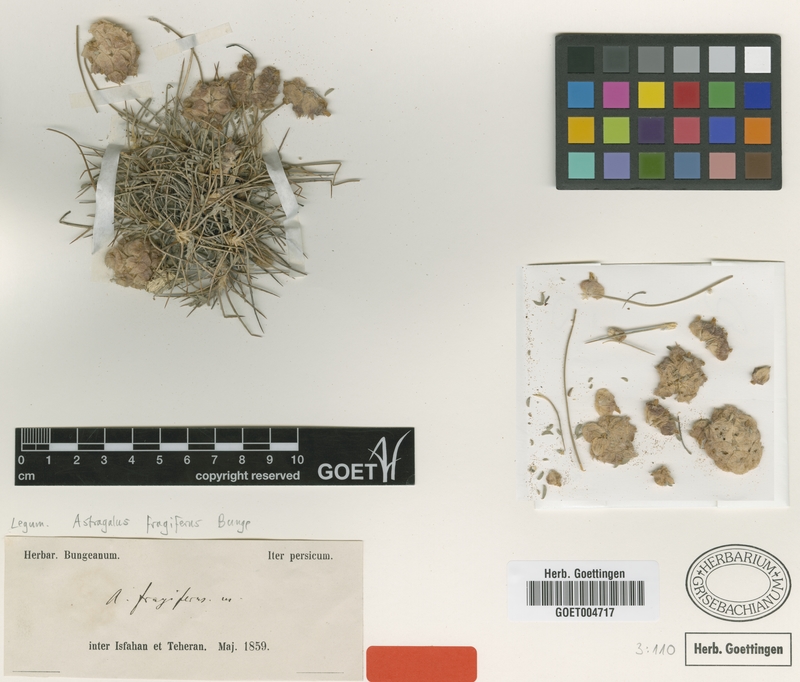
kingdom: Plantae
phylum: Tracheophyta
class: Magnoliopsida
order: Fabales
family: Fabaceae
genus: Astragalus
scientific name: Astragalus fragiferus
